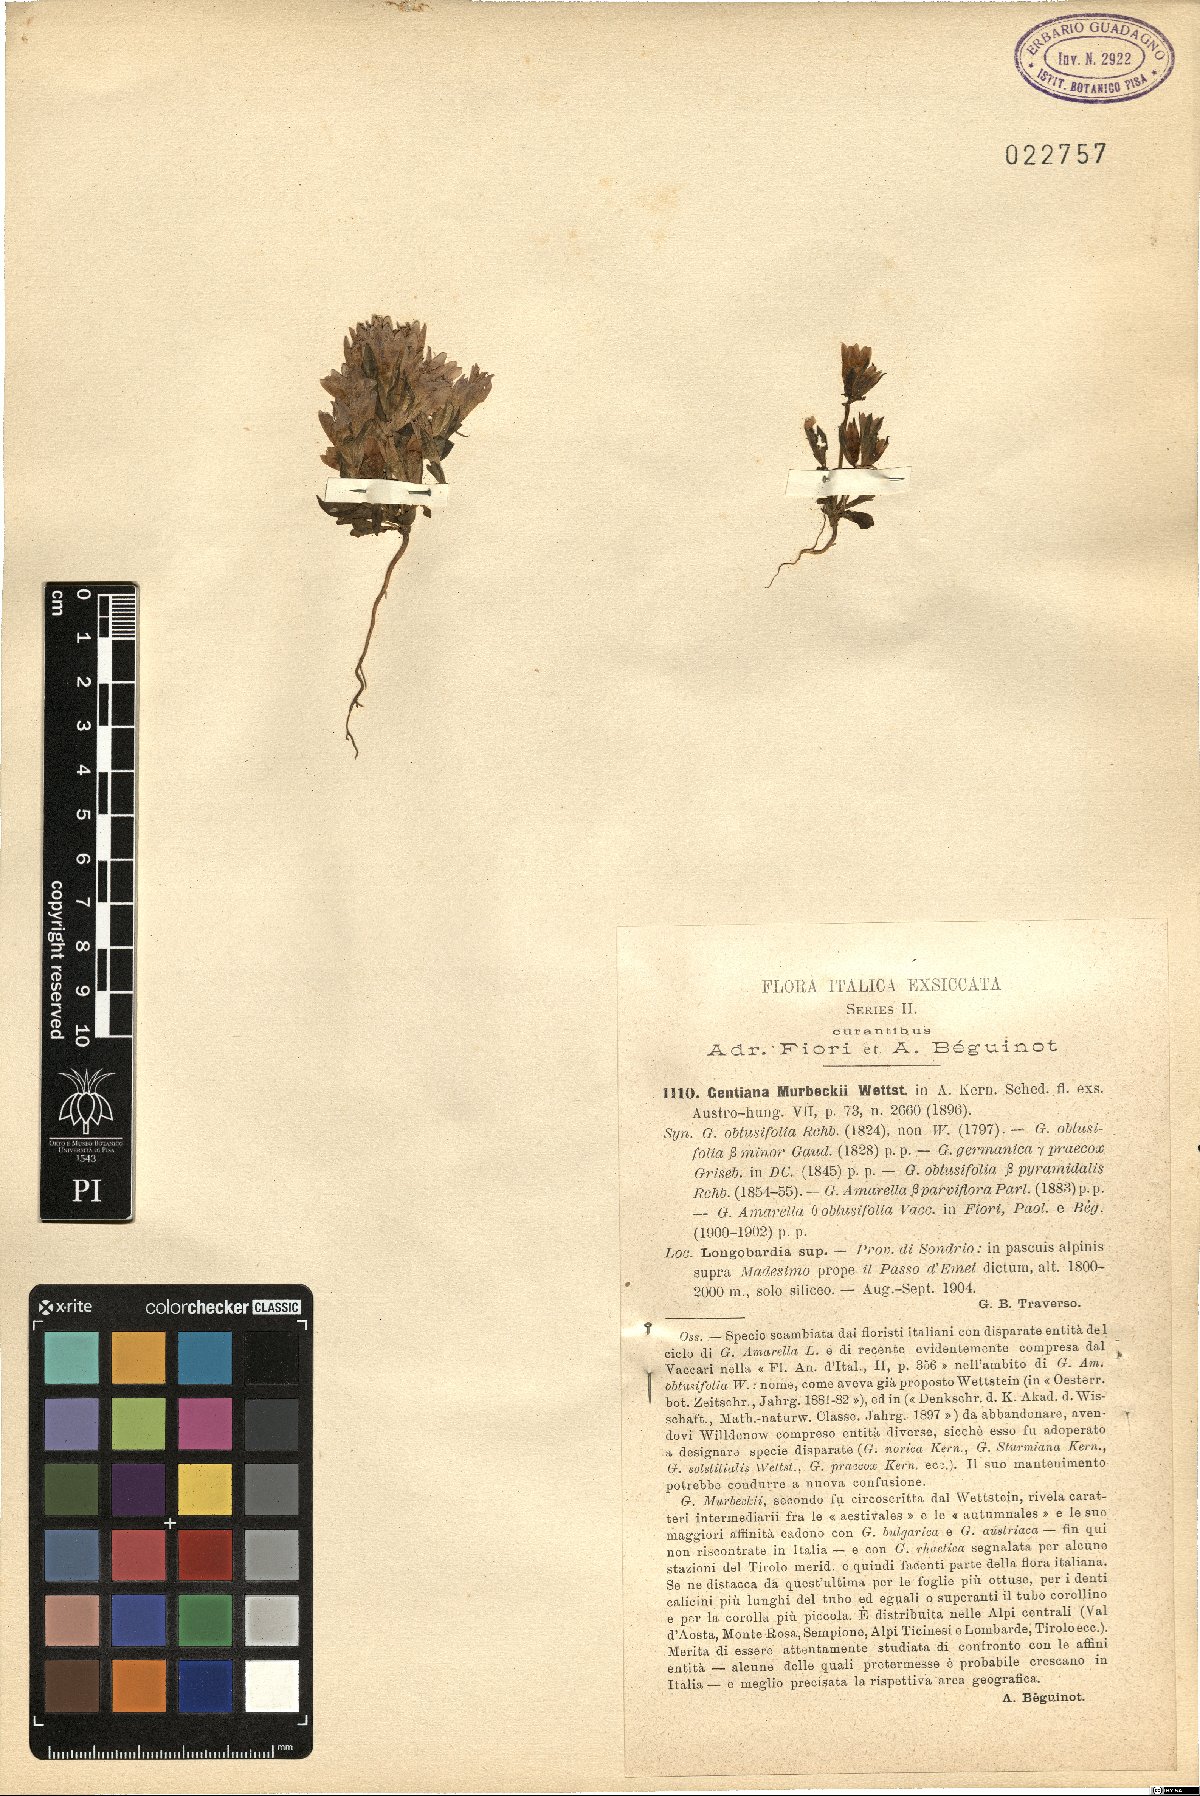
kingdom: Plantae
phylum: Tracheophyta
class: Magnoliopsida
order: Gentianales
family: Gentianaceae
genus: Gentianella
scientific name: Gentianella ramosa
